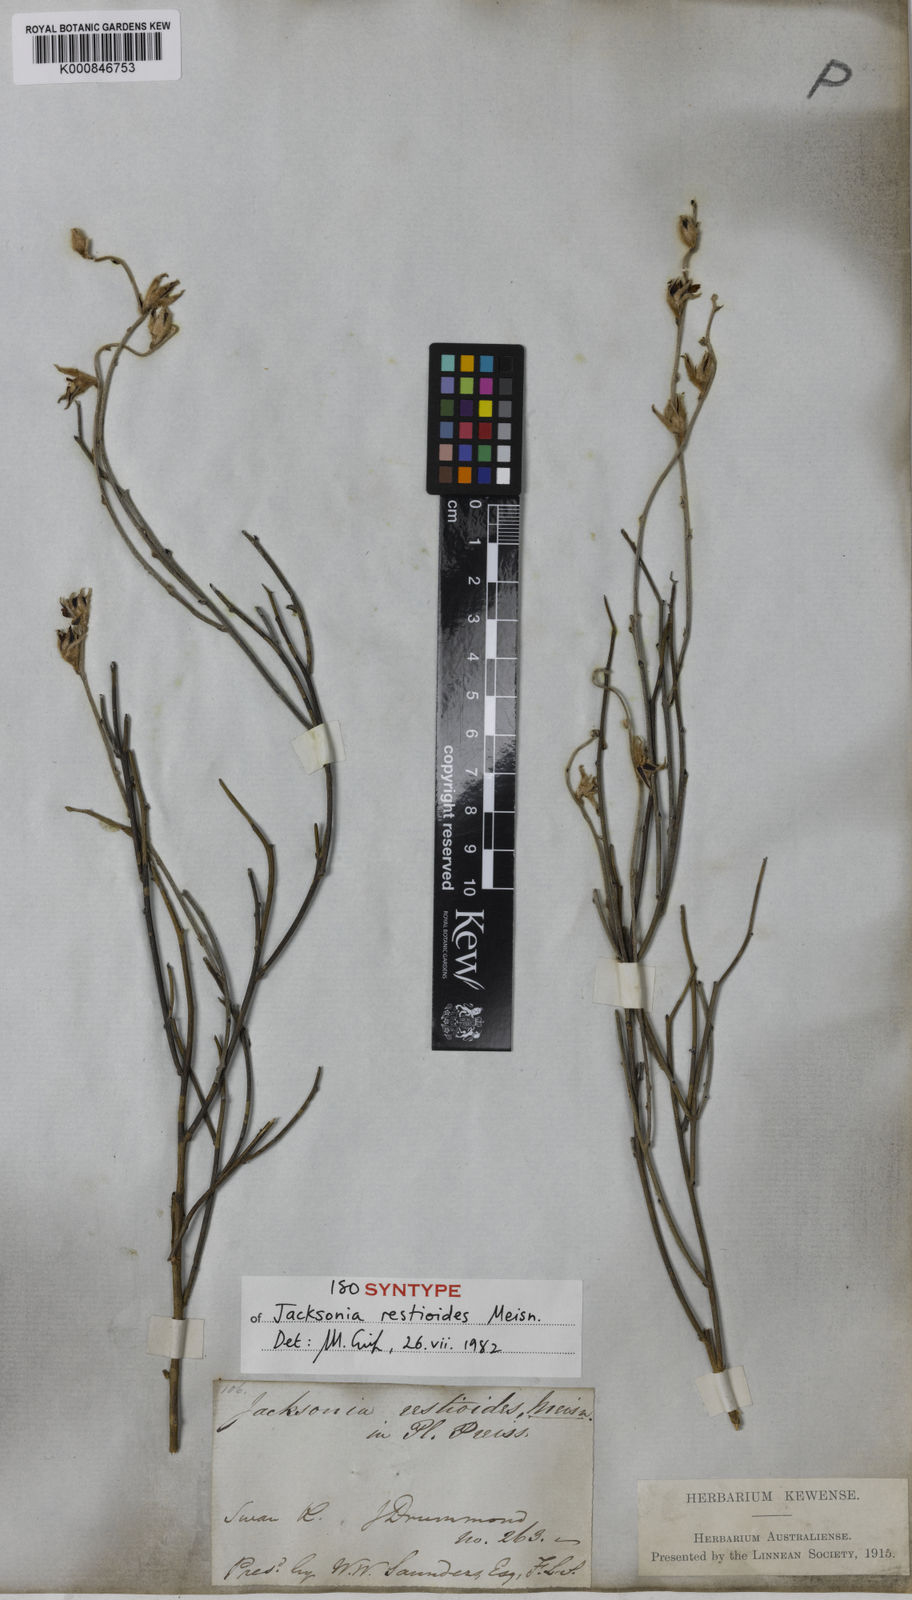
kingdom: Plantae
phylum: Tracheophyta
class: Magnoliopsida
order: Fabales
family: Fabaceae
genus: Jacksonia
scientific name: Jacksonia restioides
